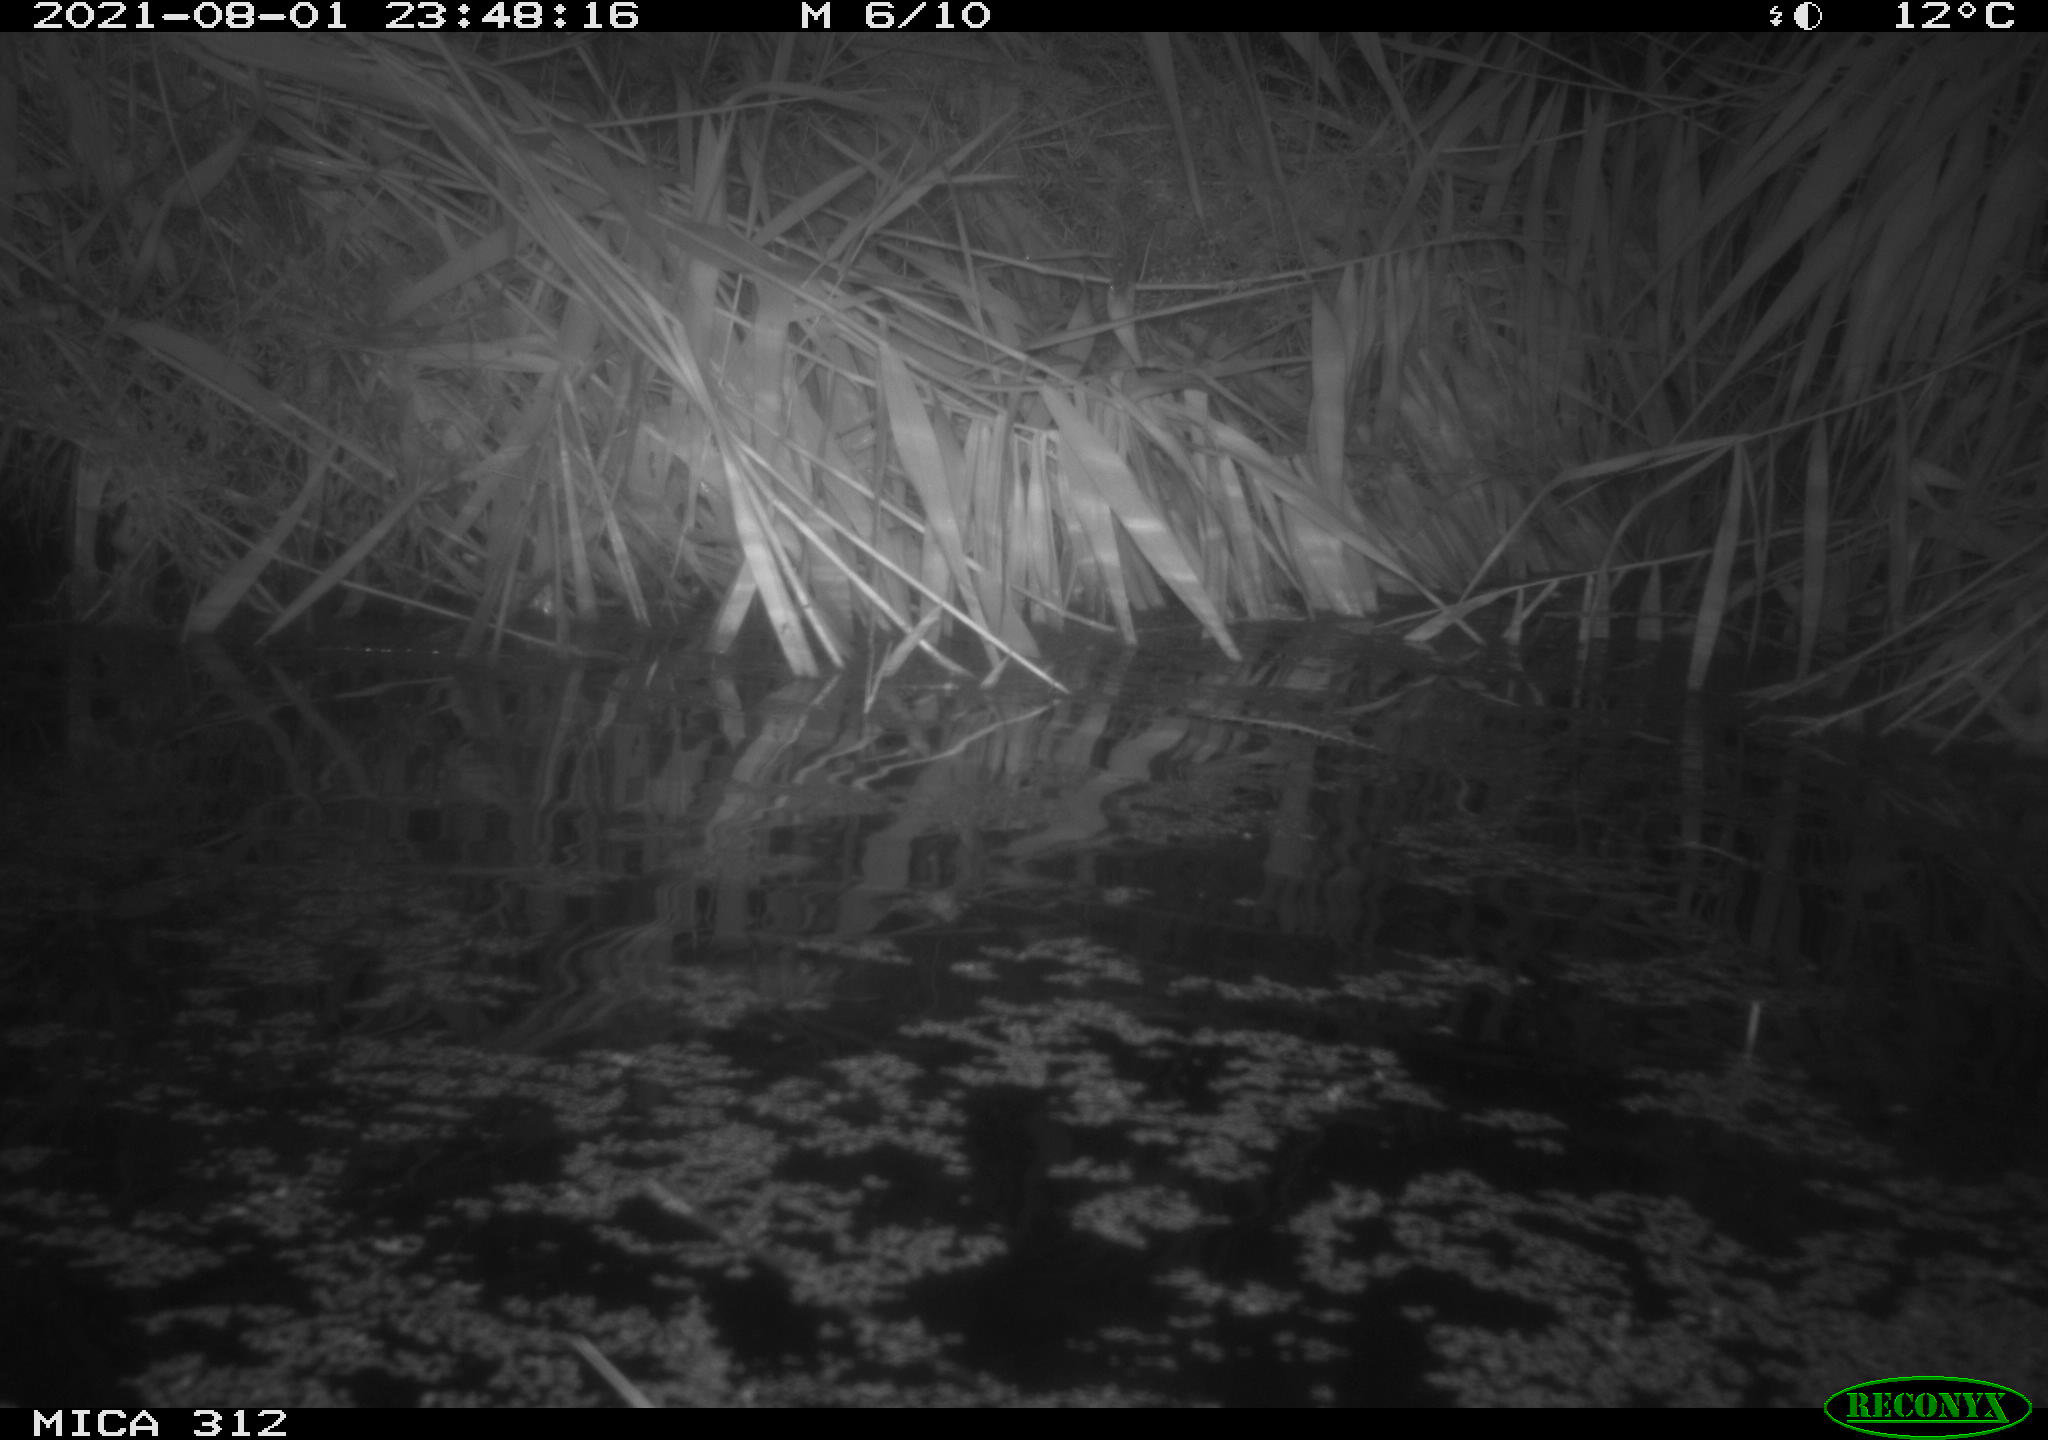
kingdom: Animalia
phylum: Chordata
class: Mammalia
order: Rodentia
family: Muridae
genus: Rattus
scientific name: Rattus norvegicus
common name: Brown rat
